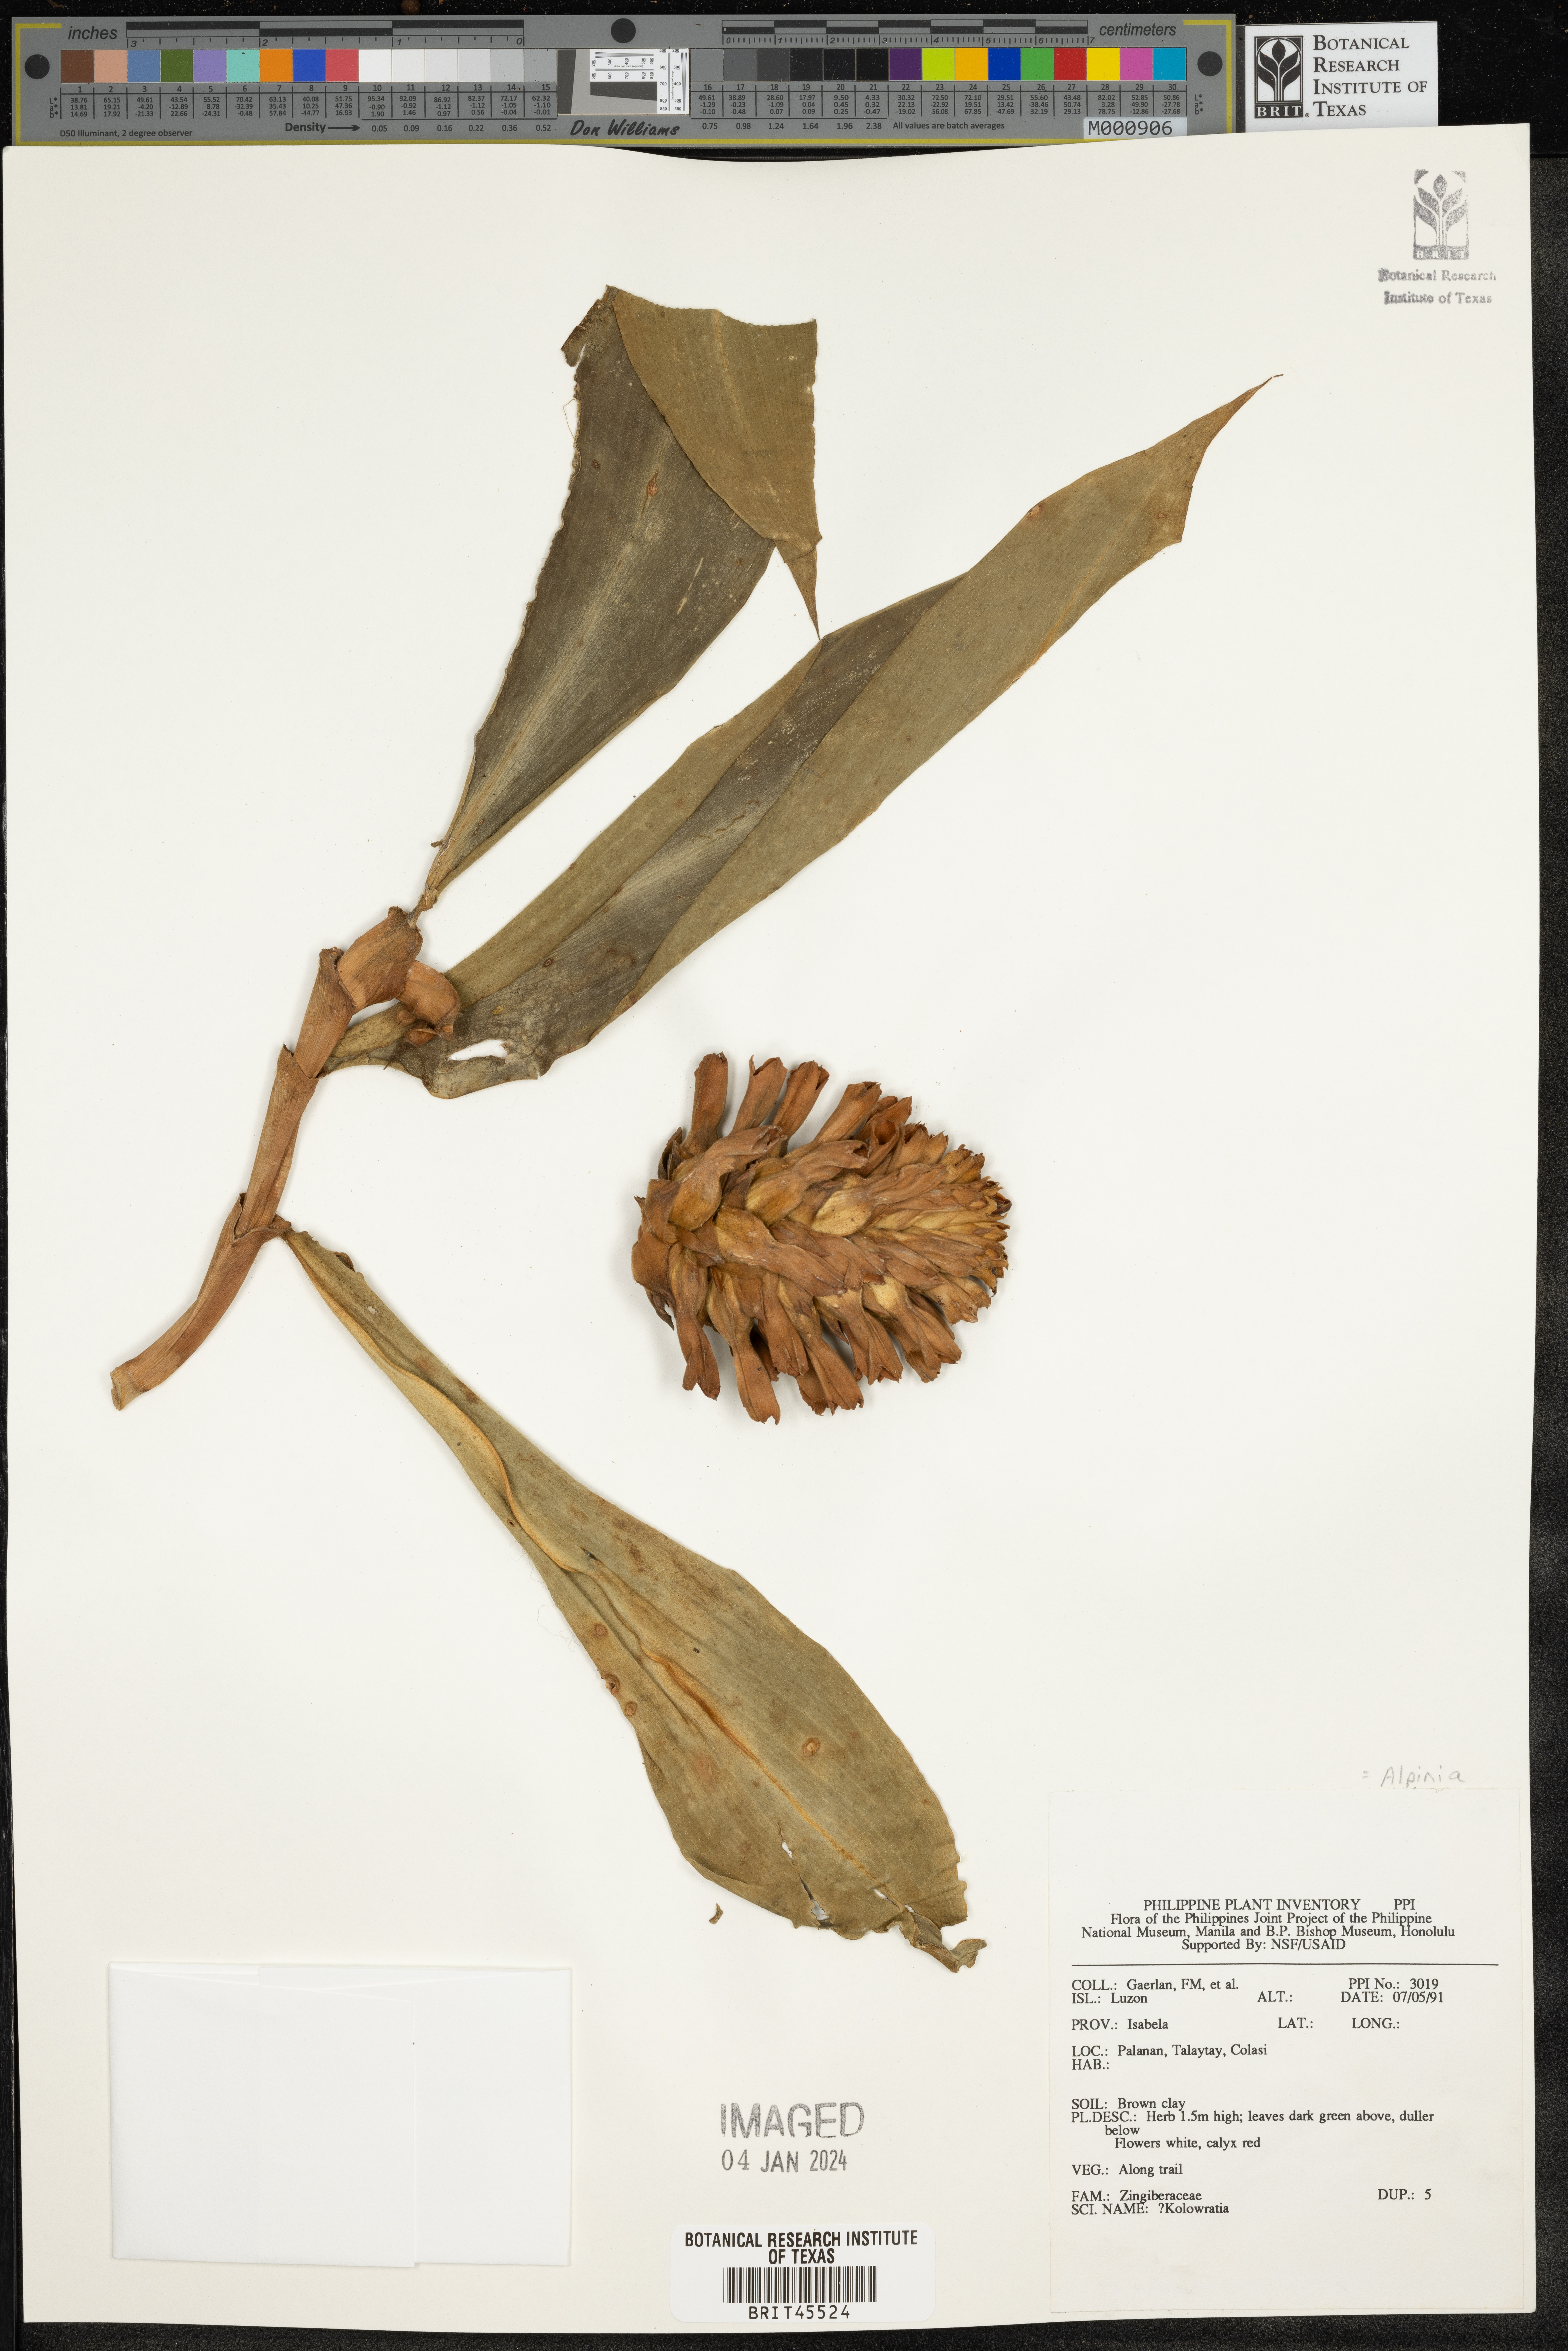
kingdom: Plantae
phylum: Tracheophyta
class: Liliopsida
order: Zingiberales
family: Zingiberaceae
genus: Alpinia
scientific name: Alpinia
